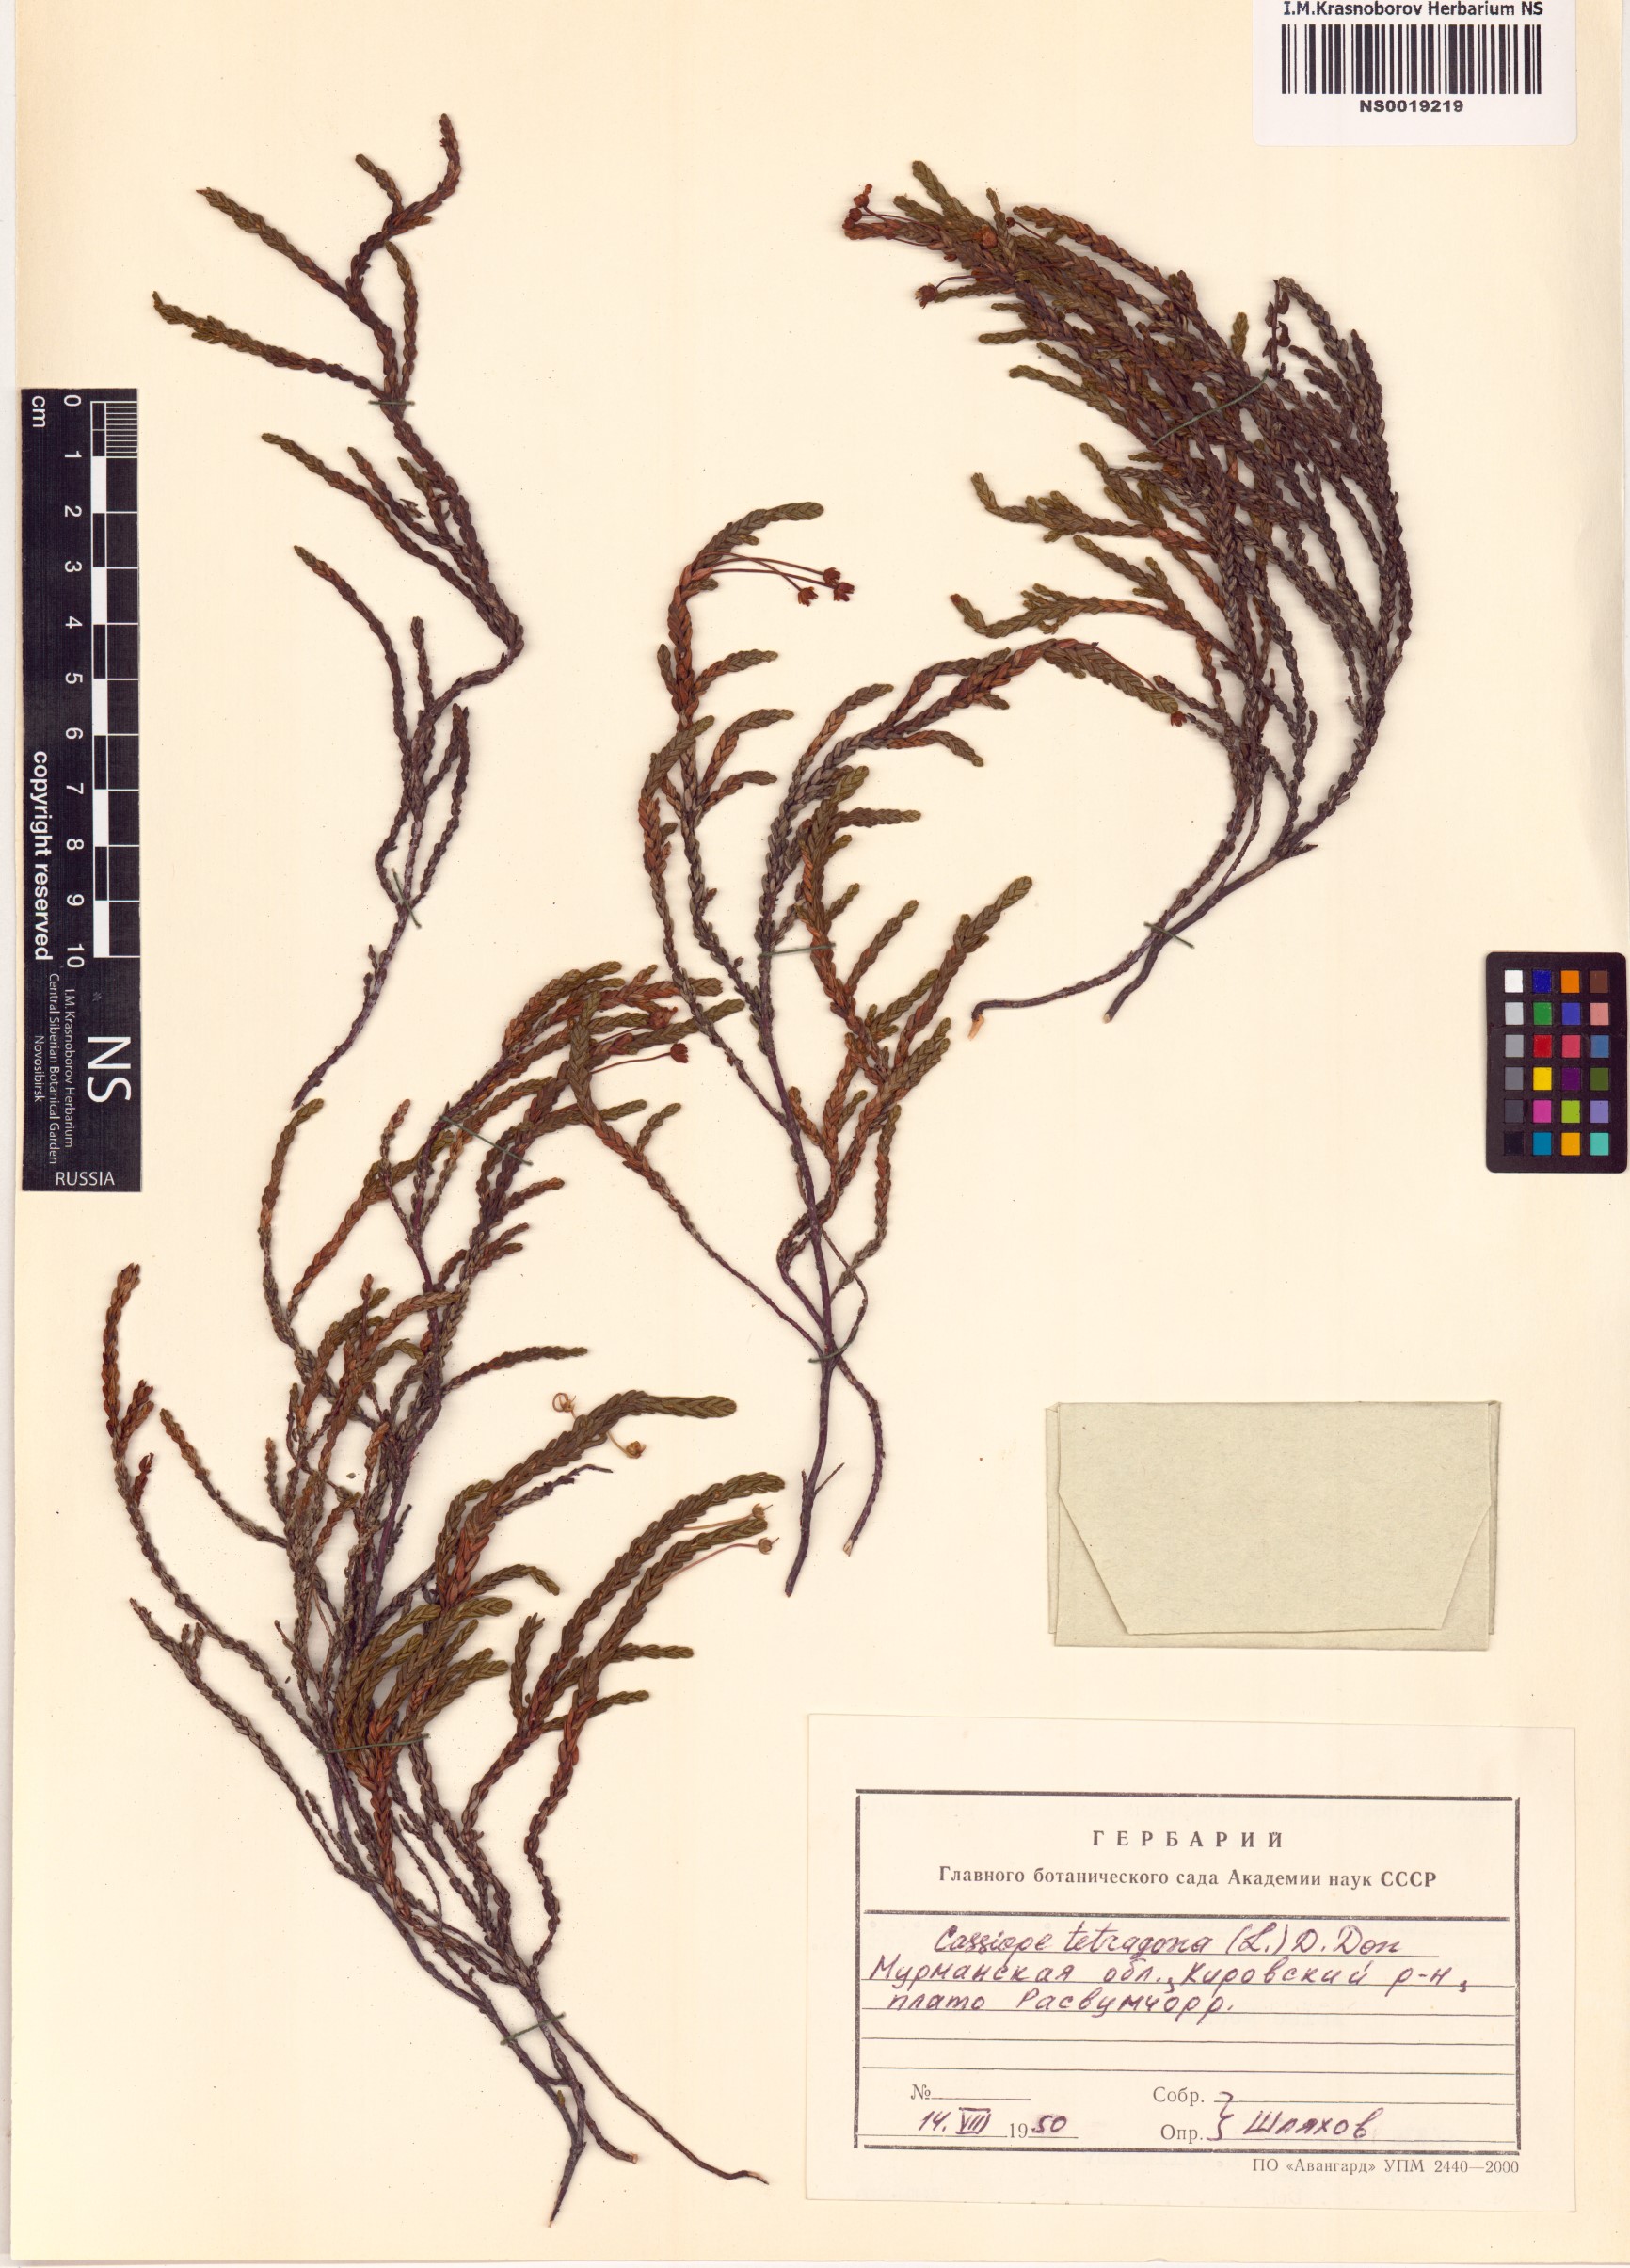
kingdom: Plantae
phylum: Tracheophyta
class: Magnoliopsida
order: Ericales
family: Ericaceae
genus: Cassiope
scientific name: Cassiope tetragona
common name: Arctic bell heather
